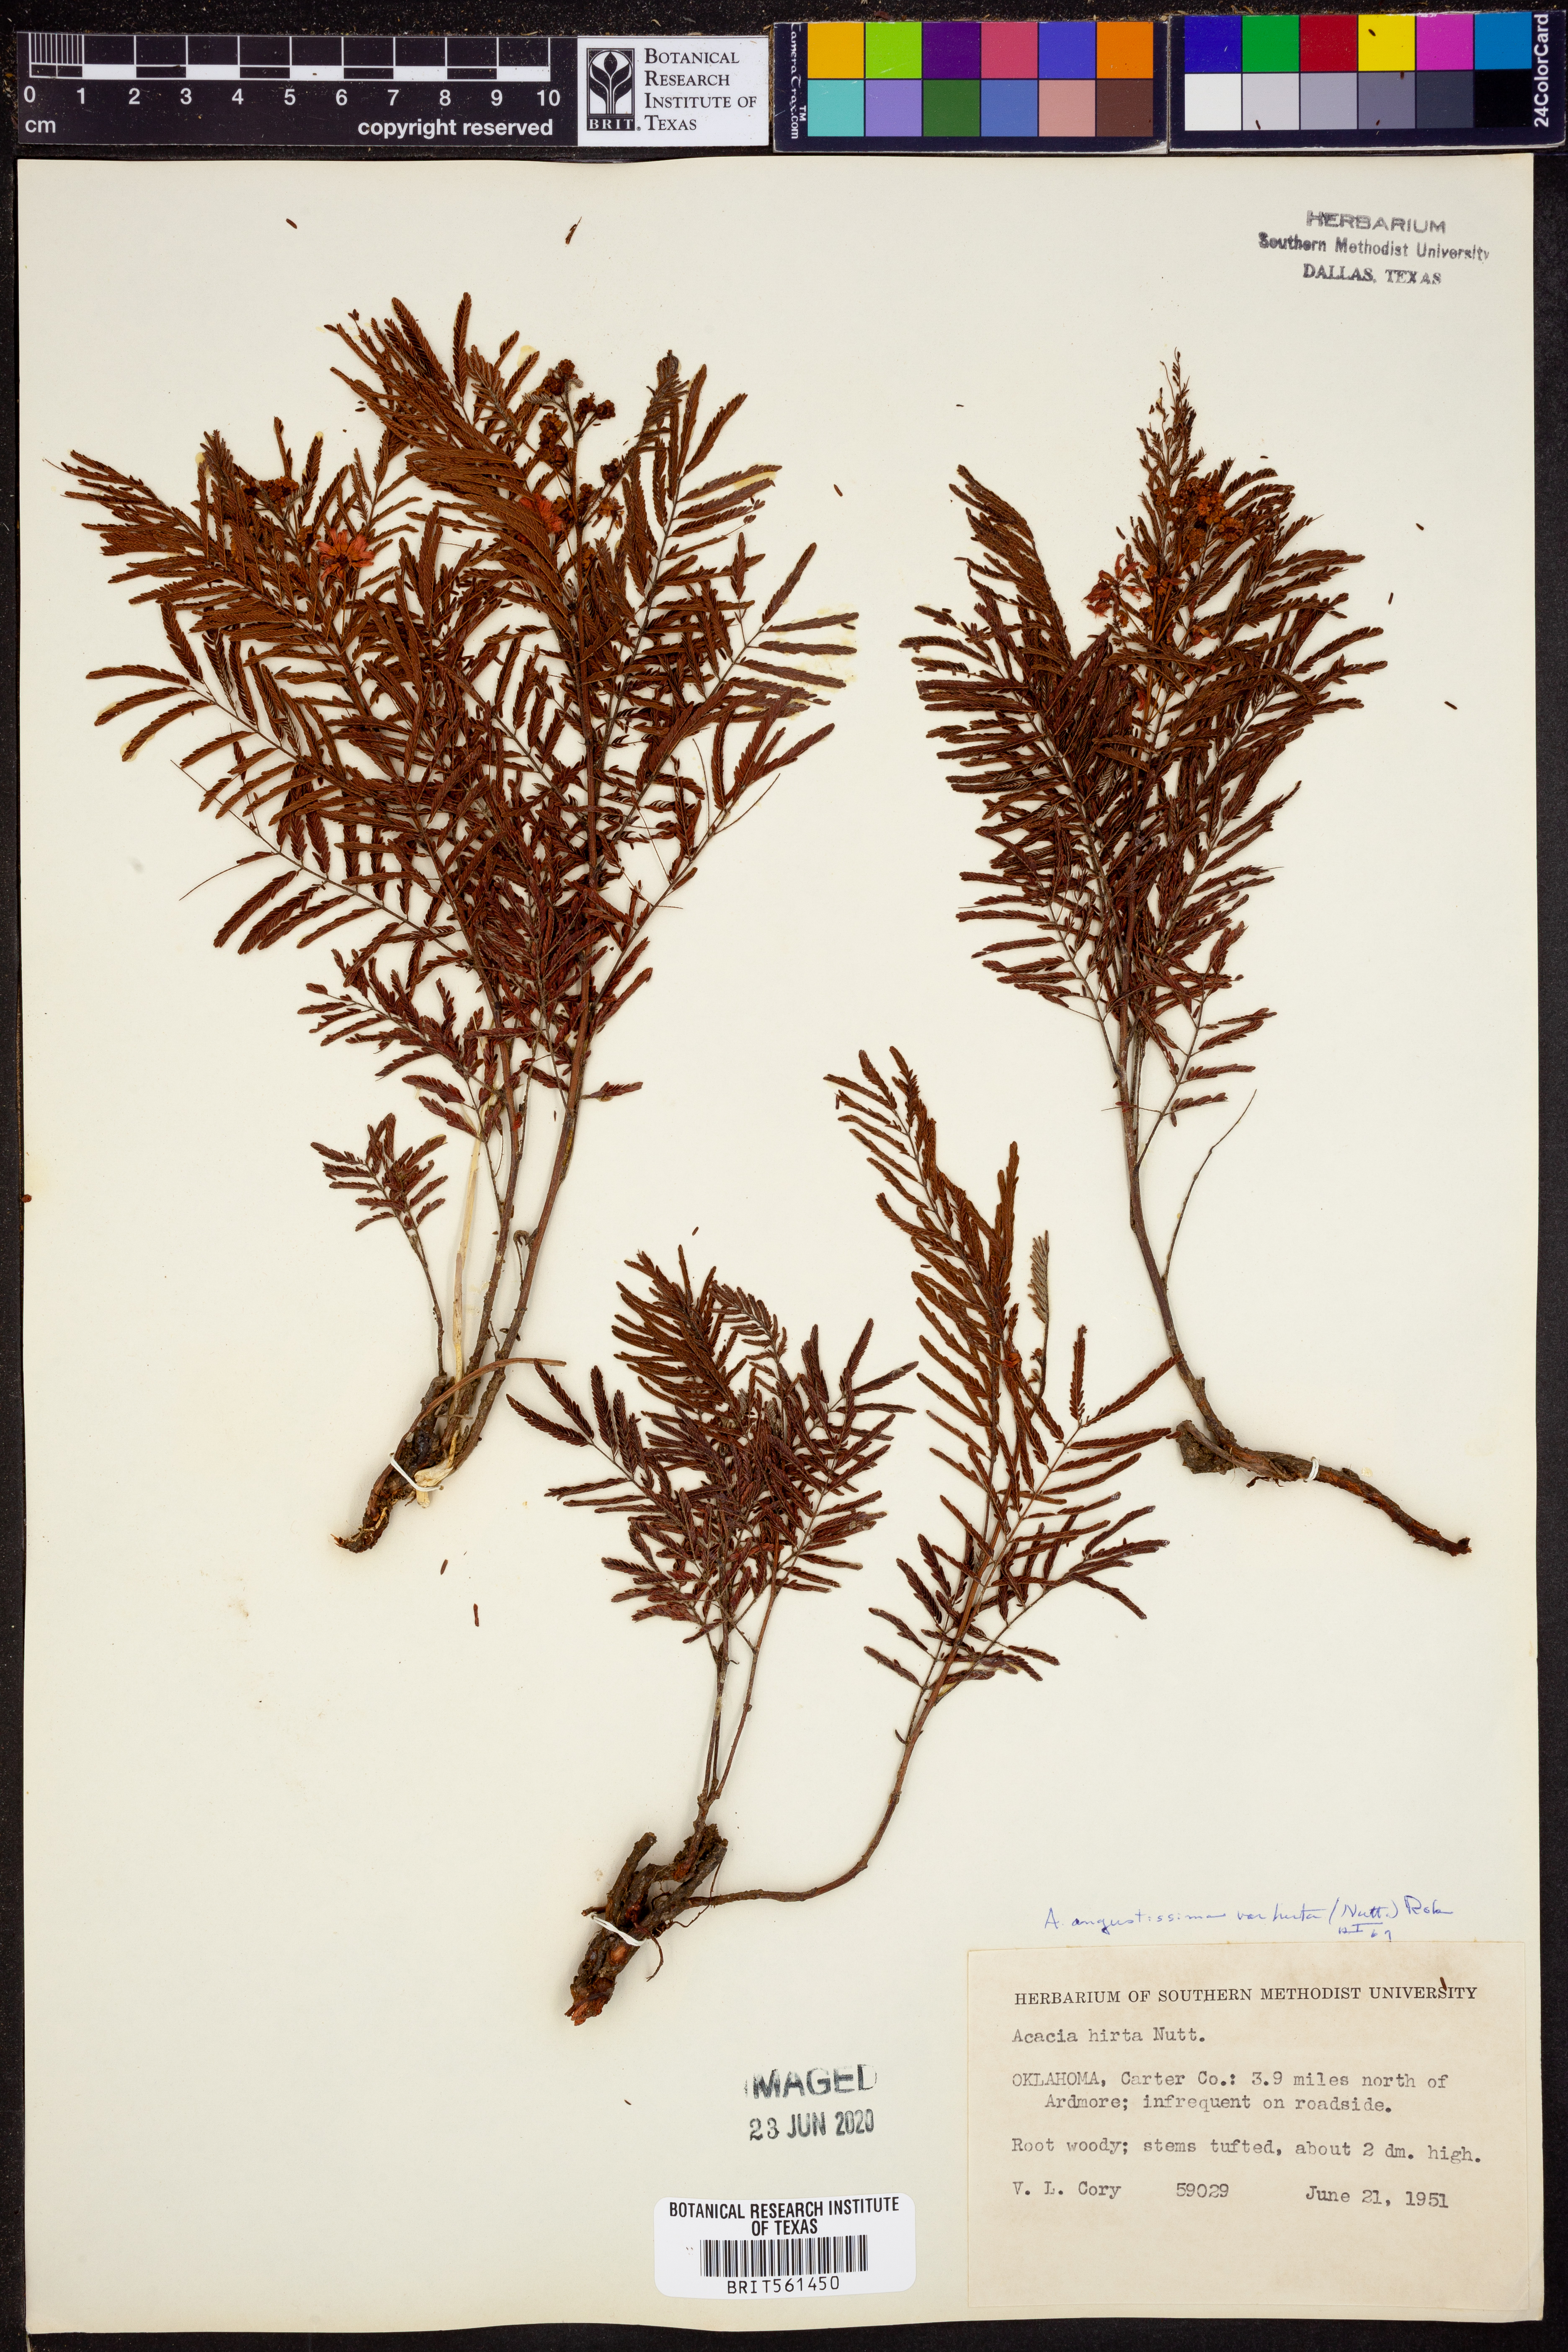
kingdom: Plantae
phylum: Tracheophyta
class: Magnoliopsida
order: Fabales
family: Fabaceae
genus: Acaciella
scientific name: Acaciella angustissima
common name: Prairie acacia
